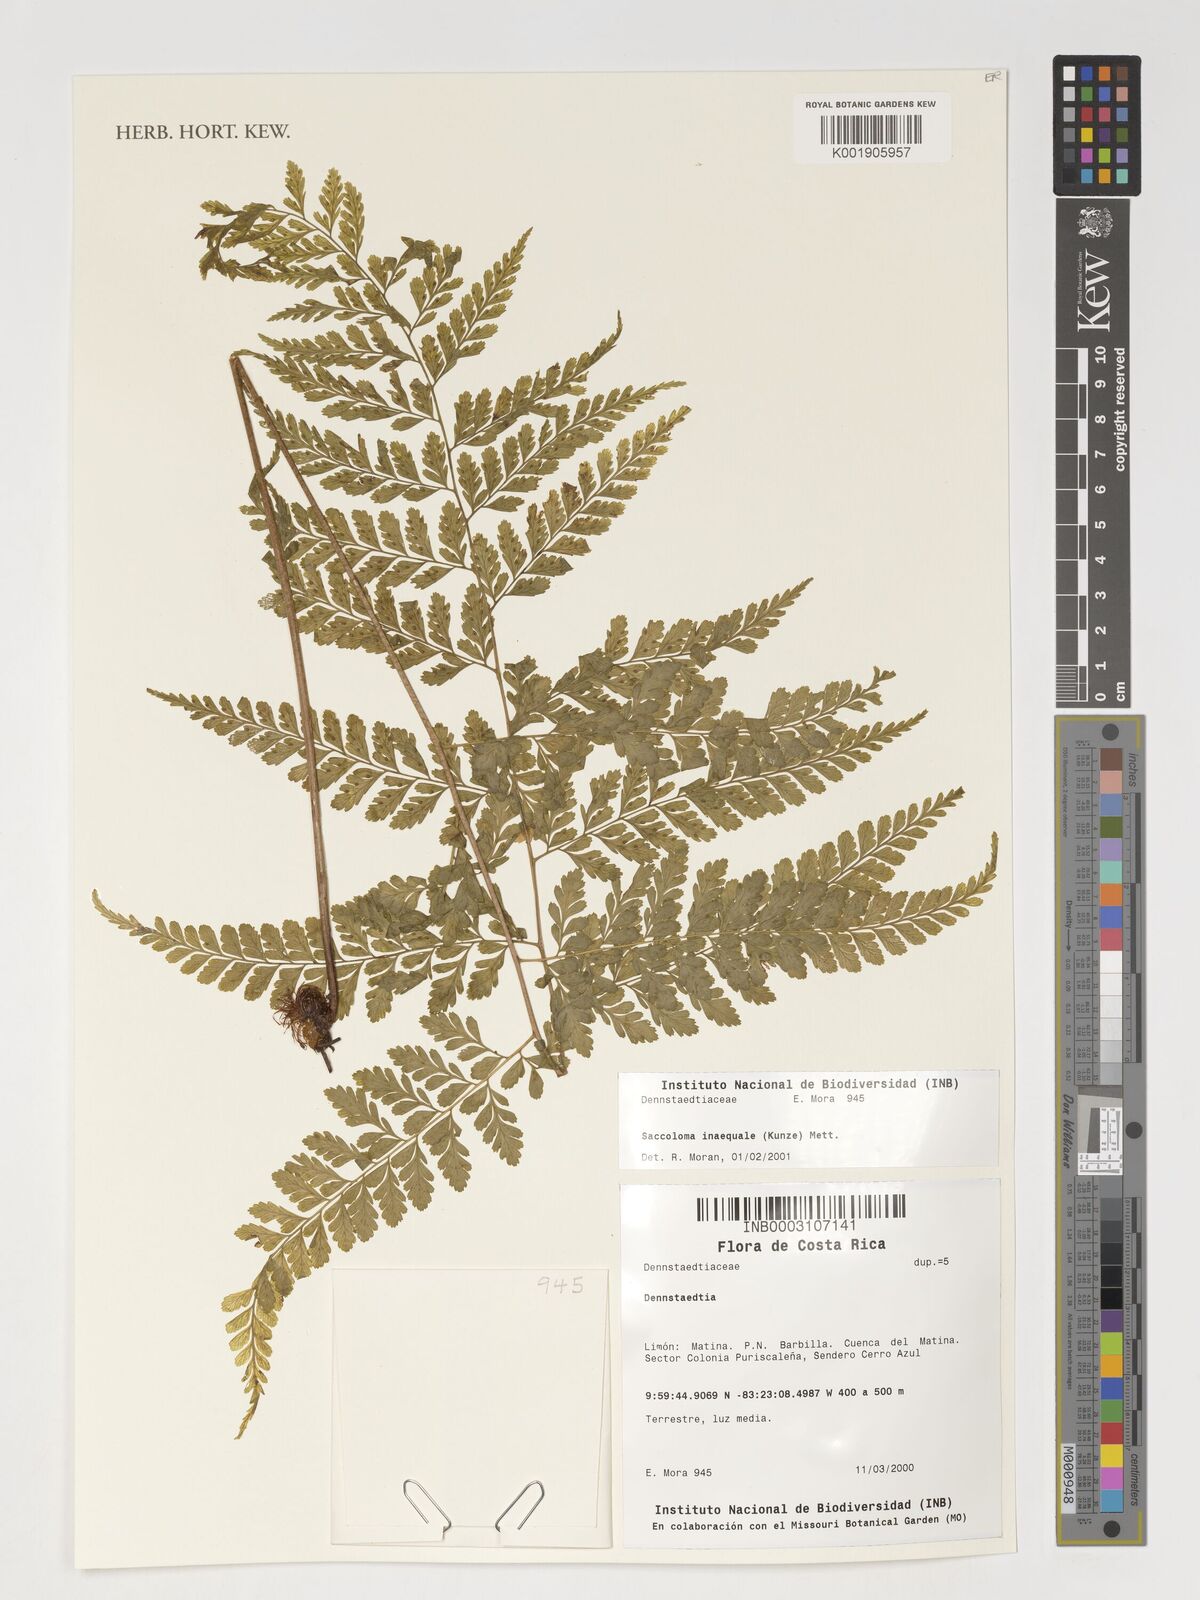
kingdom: Plantae
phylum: Tracheophyta
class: Polypodiopsida
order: Polypodiales
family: Saccolomataceae
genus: Saccoloma
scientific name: Saccoloma inaequale
